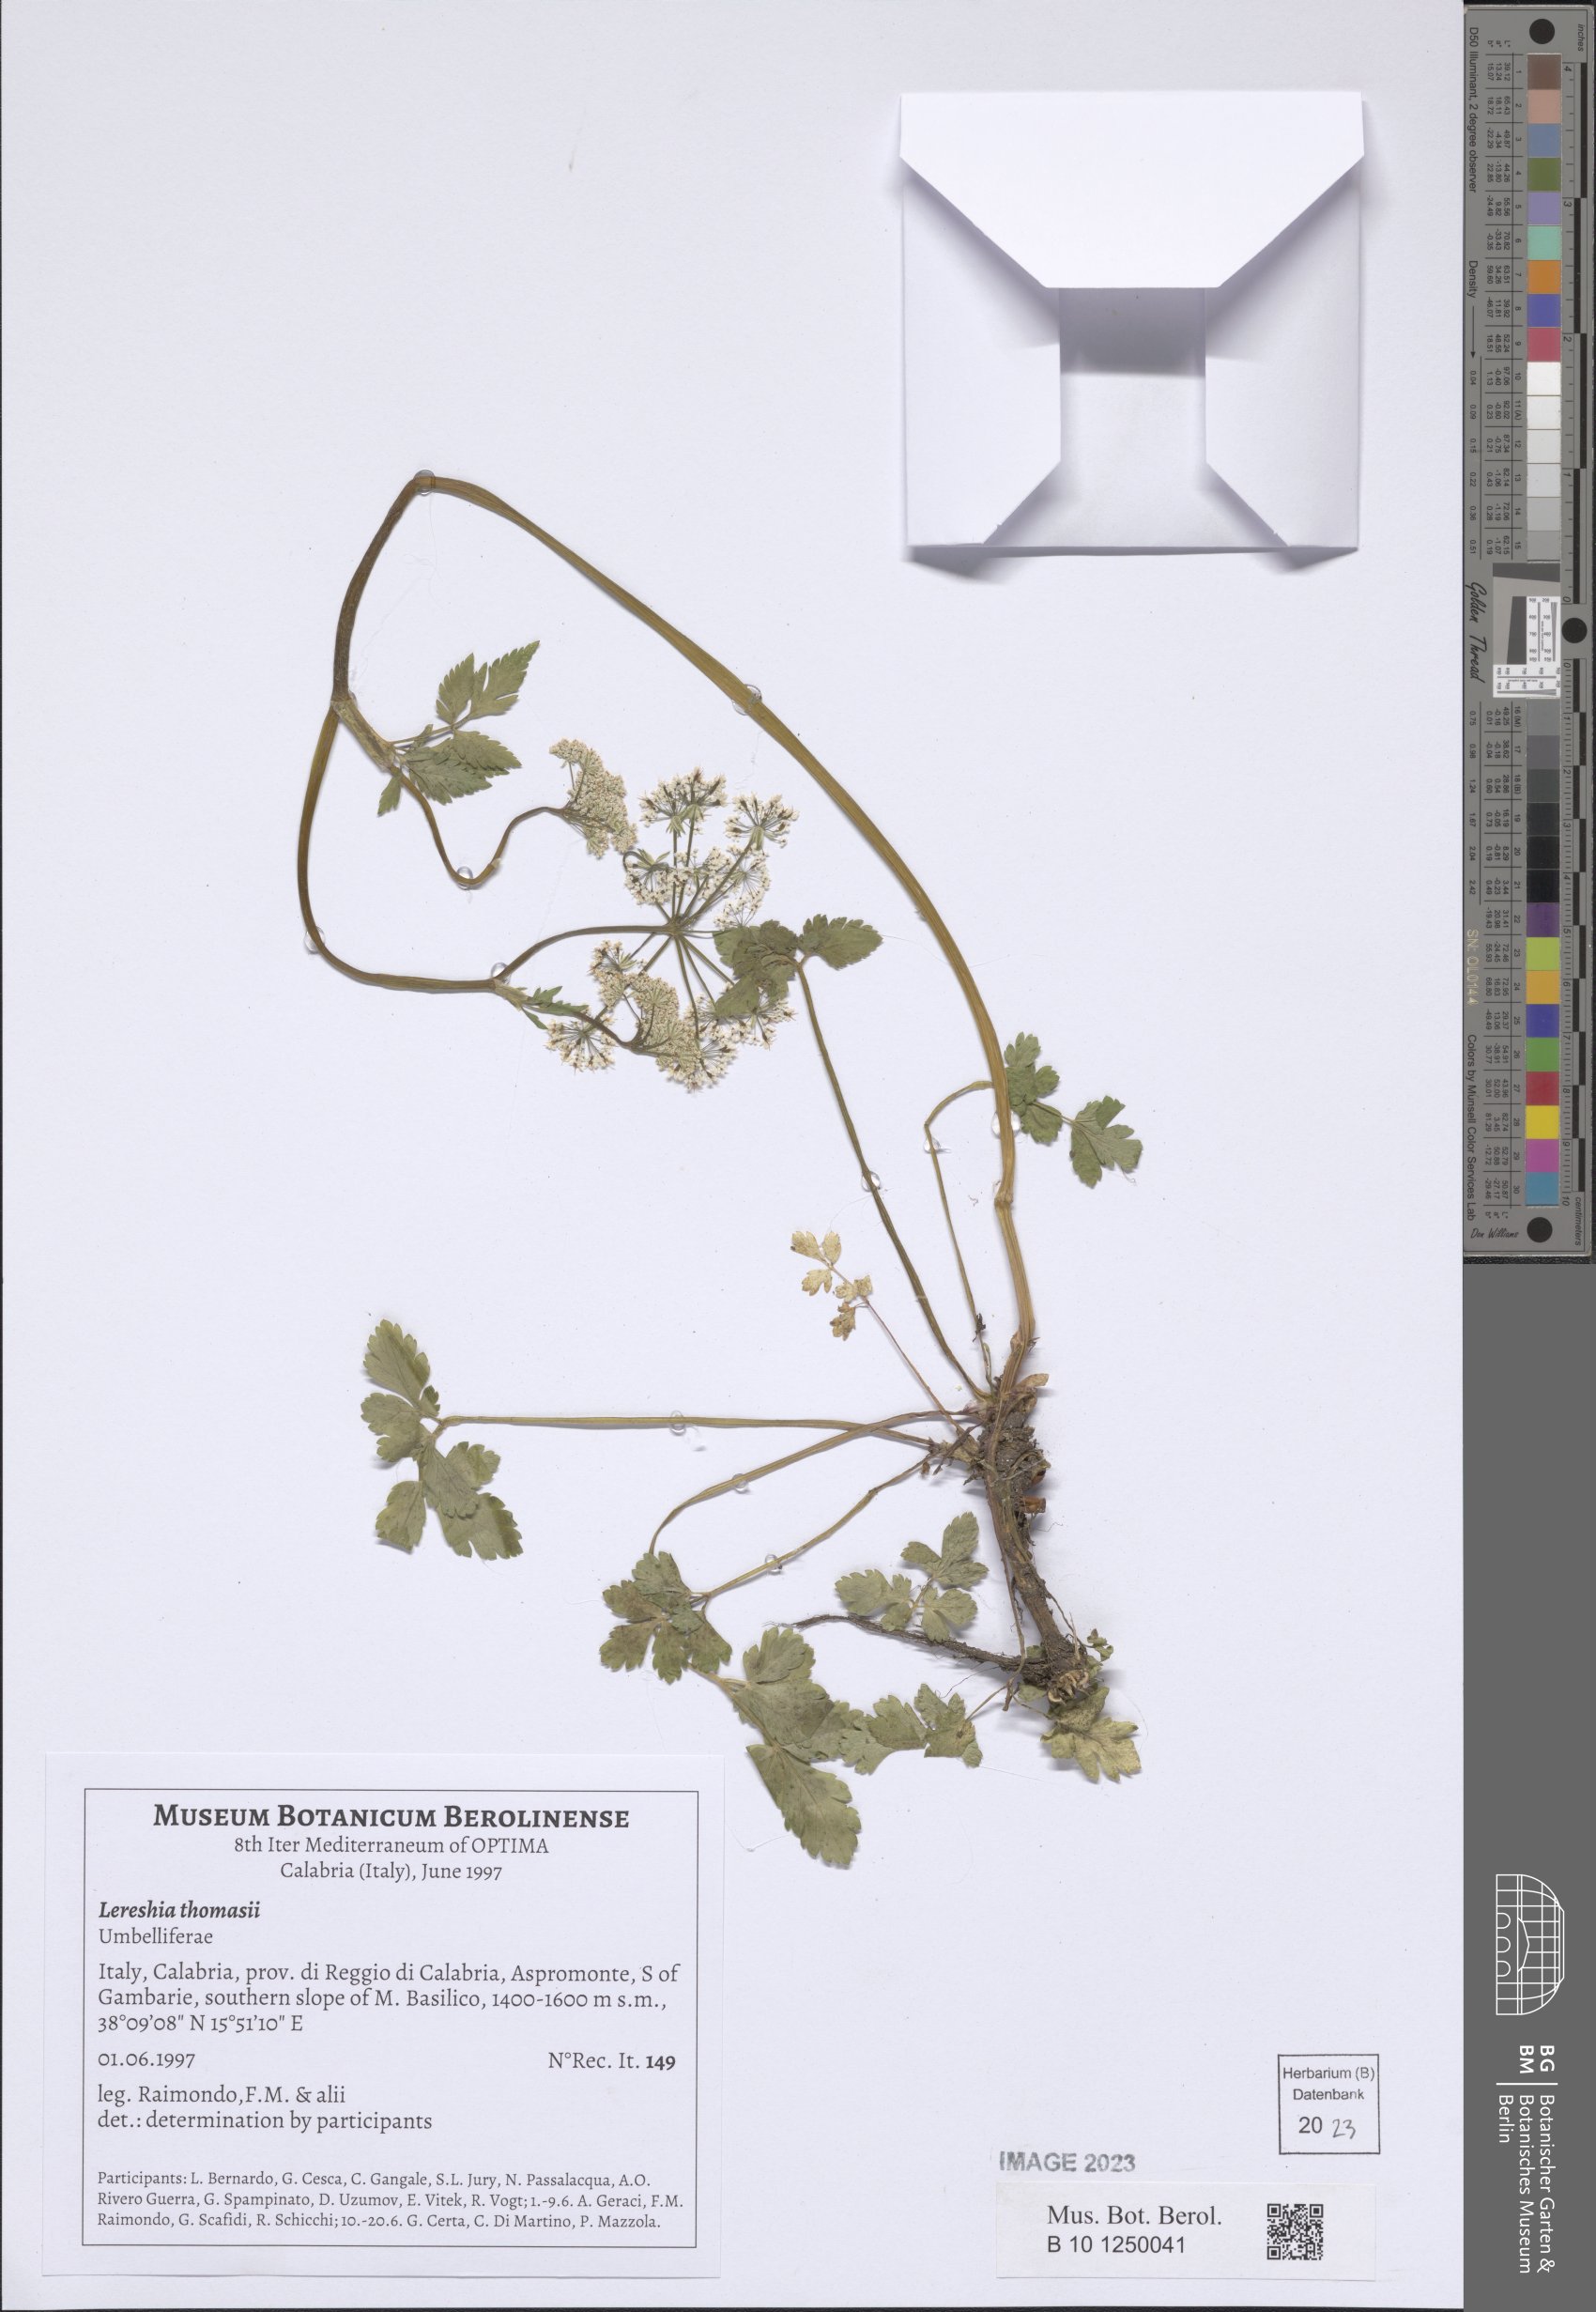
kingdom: Plantae
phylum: Tracheophyta
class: Magnoliopsida
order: Apiales
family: Apiaceae
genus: Cryptotaenia
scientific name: Cryptotaenia thomasii
